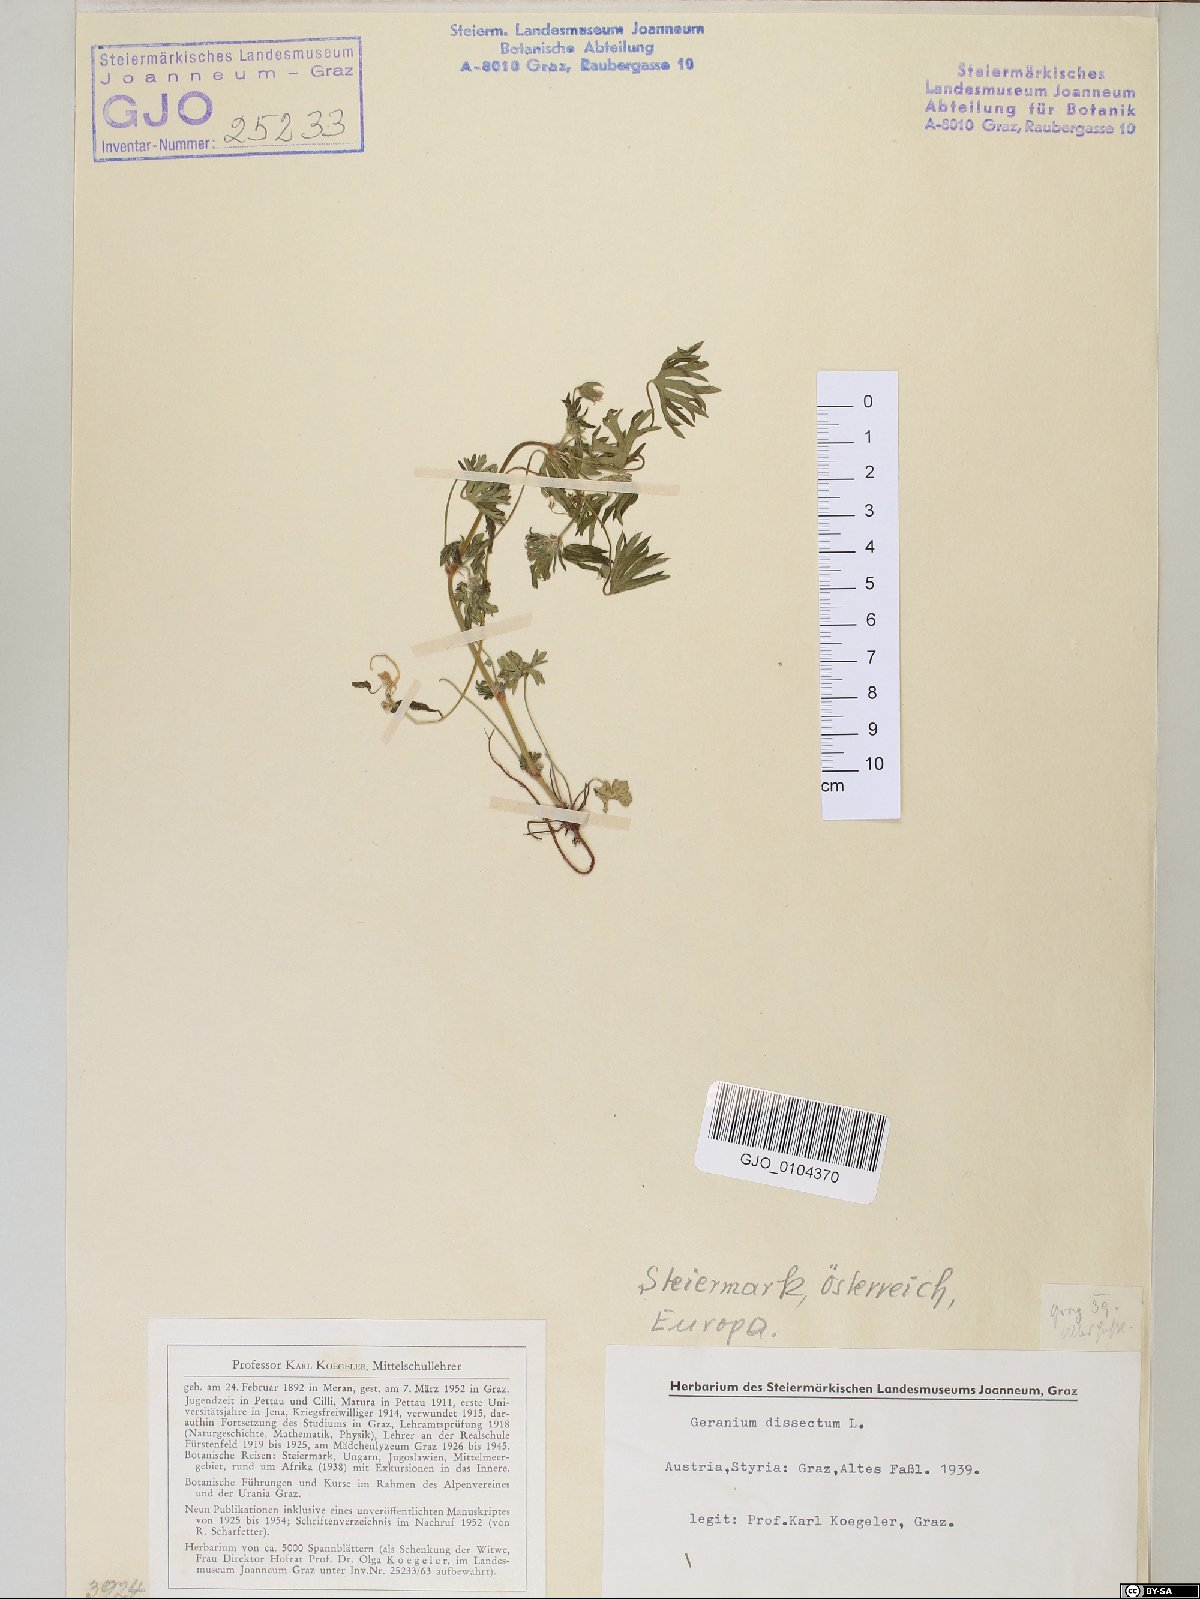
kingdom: Plantae
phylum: Tracheophyta
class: Magnoliopsida
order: Geraniales
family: Geraniaceae
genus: Geranium
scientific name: Geranium dissectum
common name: Cut-leaved crane's-bill
